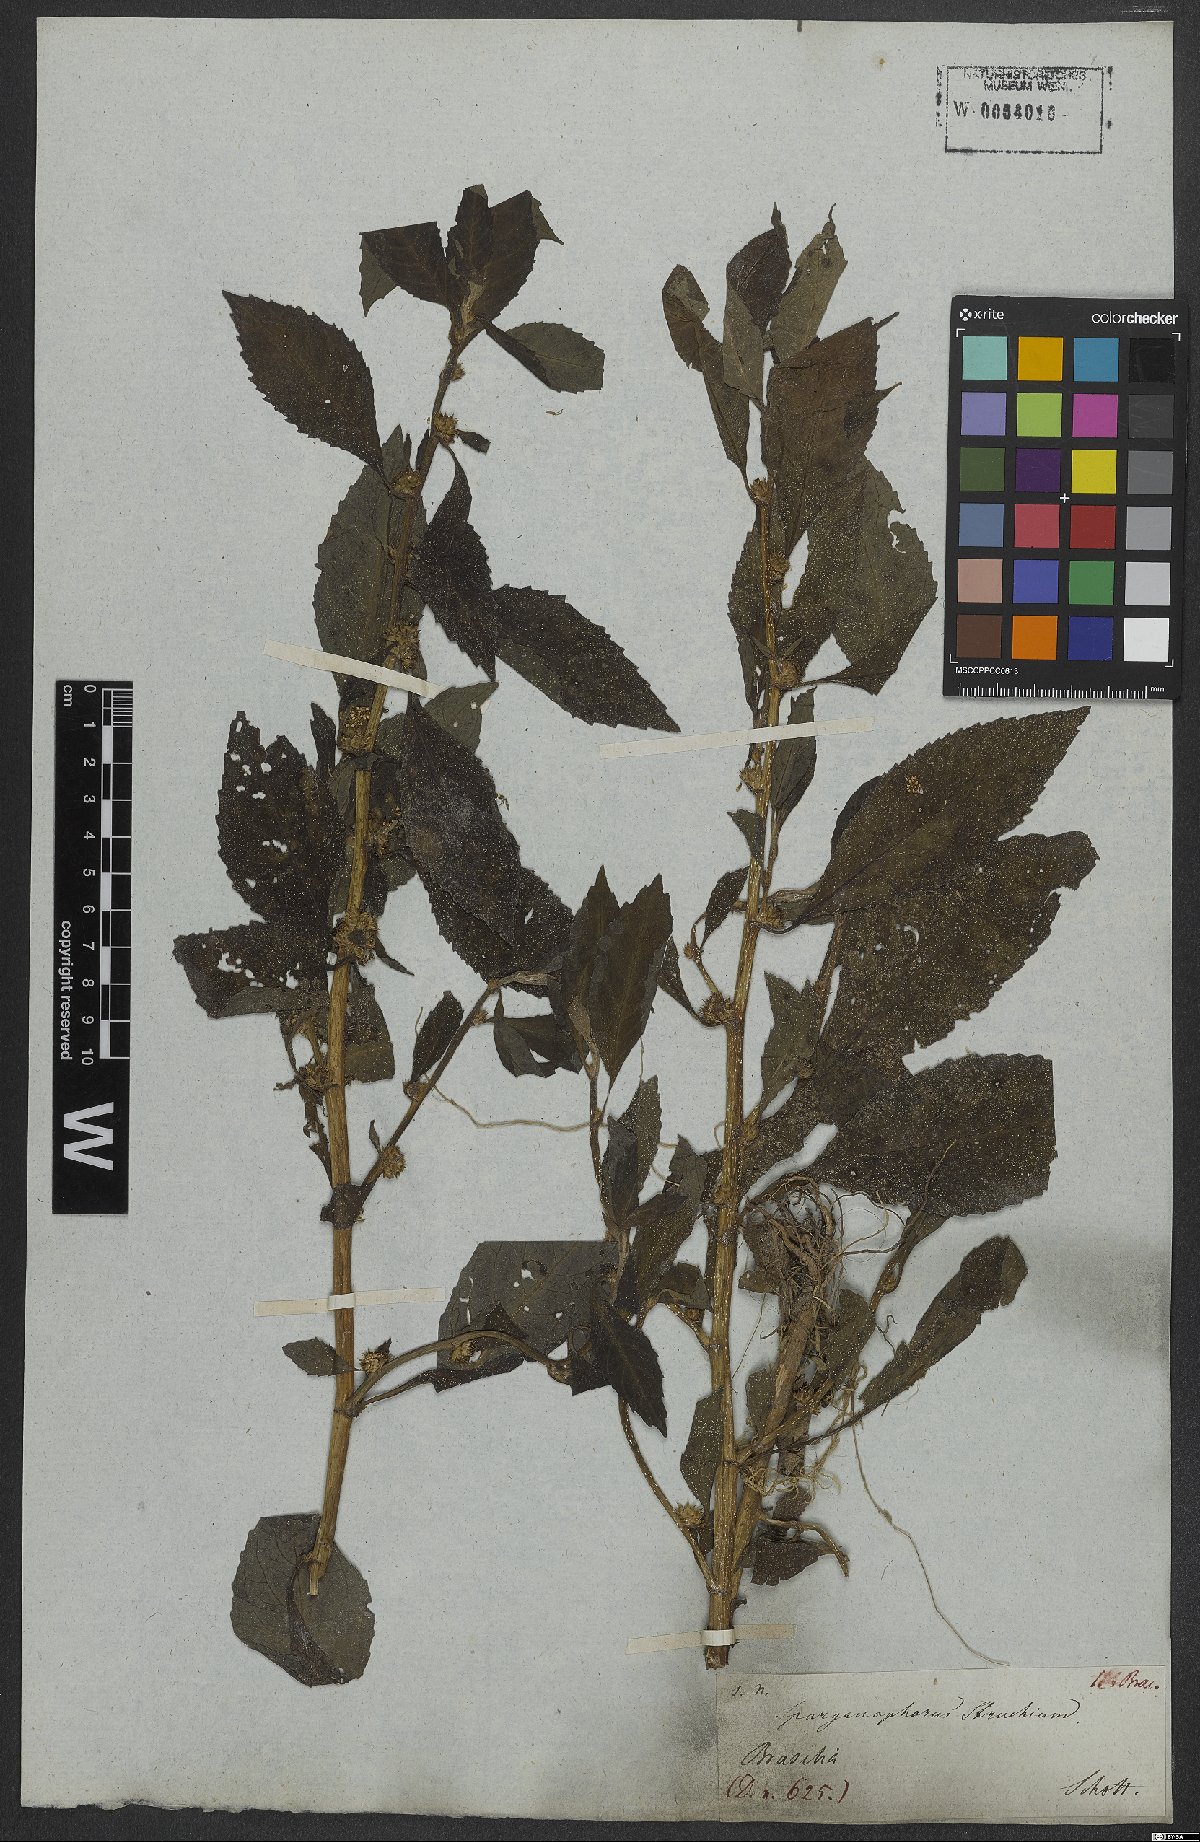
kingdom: Plantae
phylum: Tracheophyta
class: Magnoliopsida
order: Asterales
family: Asteraceae
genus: Struchium
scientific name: Struchium sparganophorum
